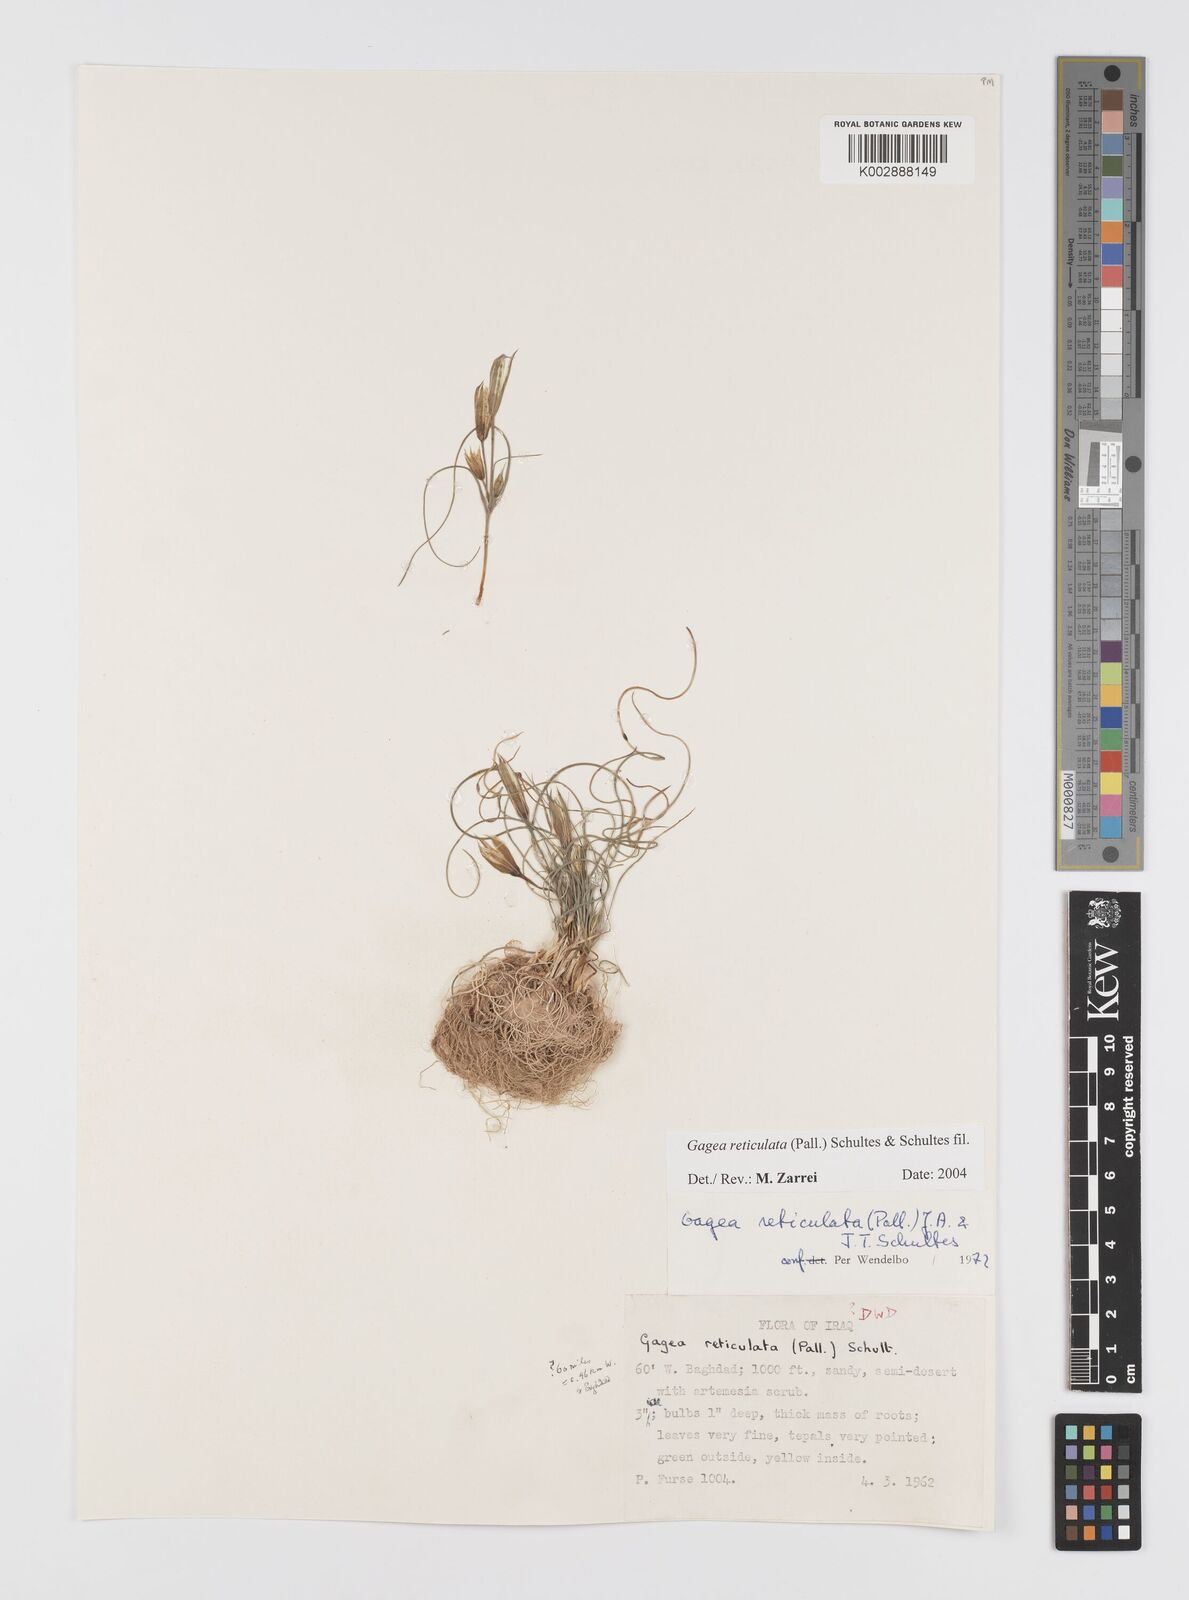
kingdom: Plantae
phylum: Tracheophyta
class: Liliopsida
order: Liliales
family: Liliaceae
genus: Gagea
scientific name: Gagea reticulata
